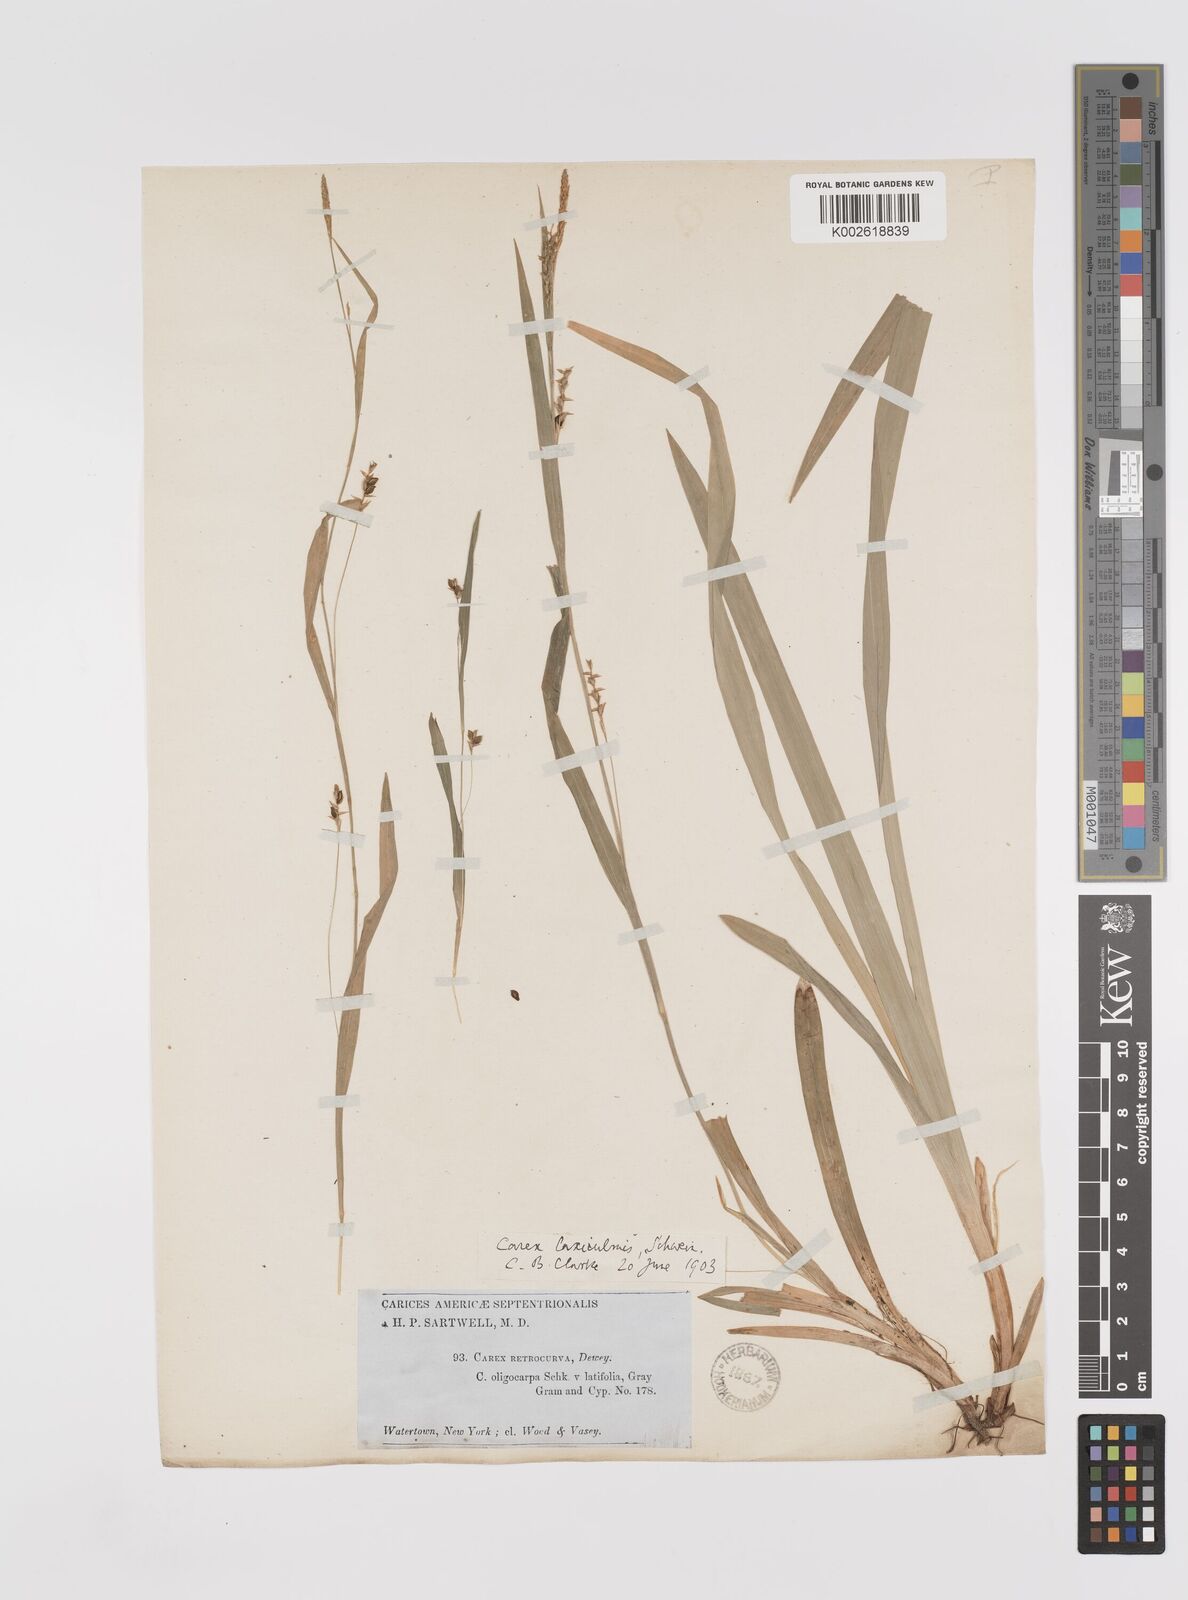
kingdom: Plantae
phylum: Tracheophyta
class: Liliopsida
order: Poales
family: Cyperaceae
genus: Carex
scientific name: Carex laxiculmis
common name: Spreading sedge
